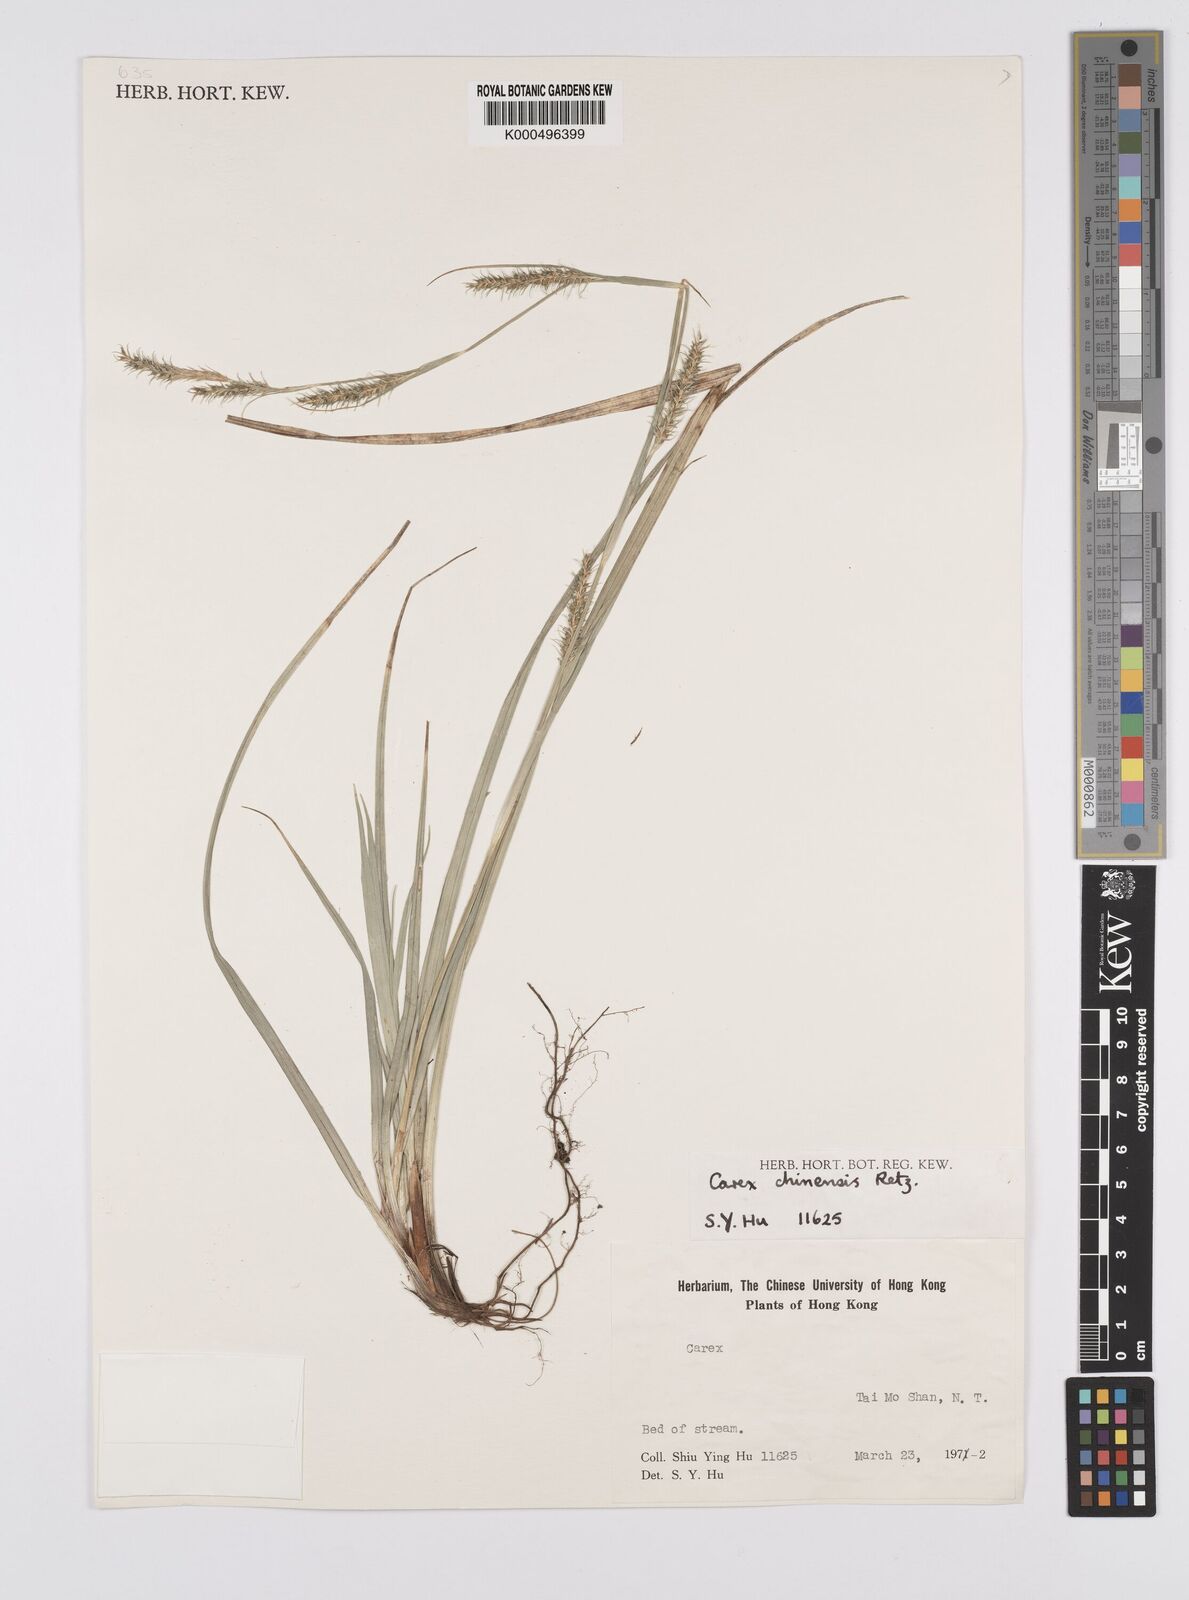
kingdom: Plantae
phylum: Tracheophyta
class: Liliopsida
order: Poales
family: Cyperaceae
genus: Carex
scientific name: Carex chinensis
